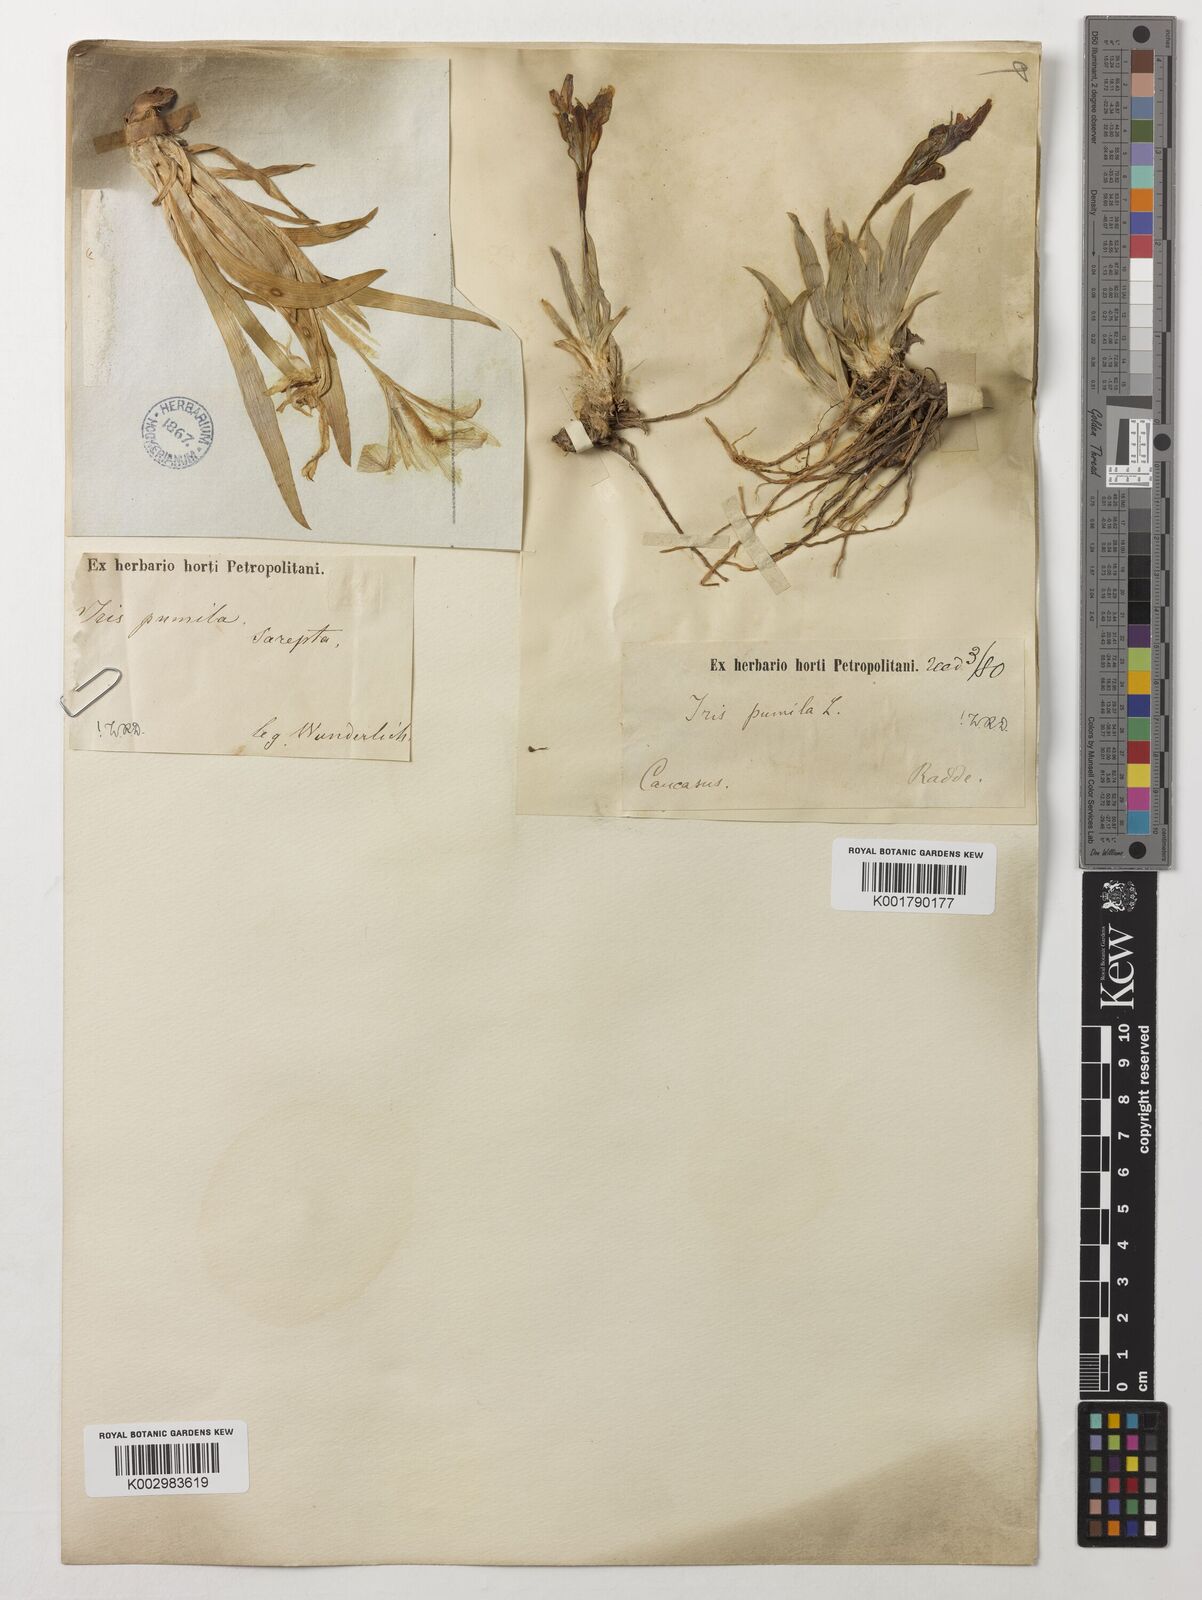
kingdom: Plantae
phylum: Tracheophyta
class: Liliopsida
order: Asparagales
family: Iridaceae
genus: Iris
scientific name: Iris pumila
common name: Dwarf iris
